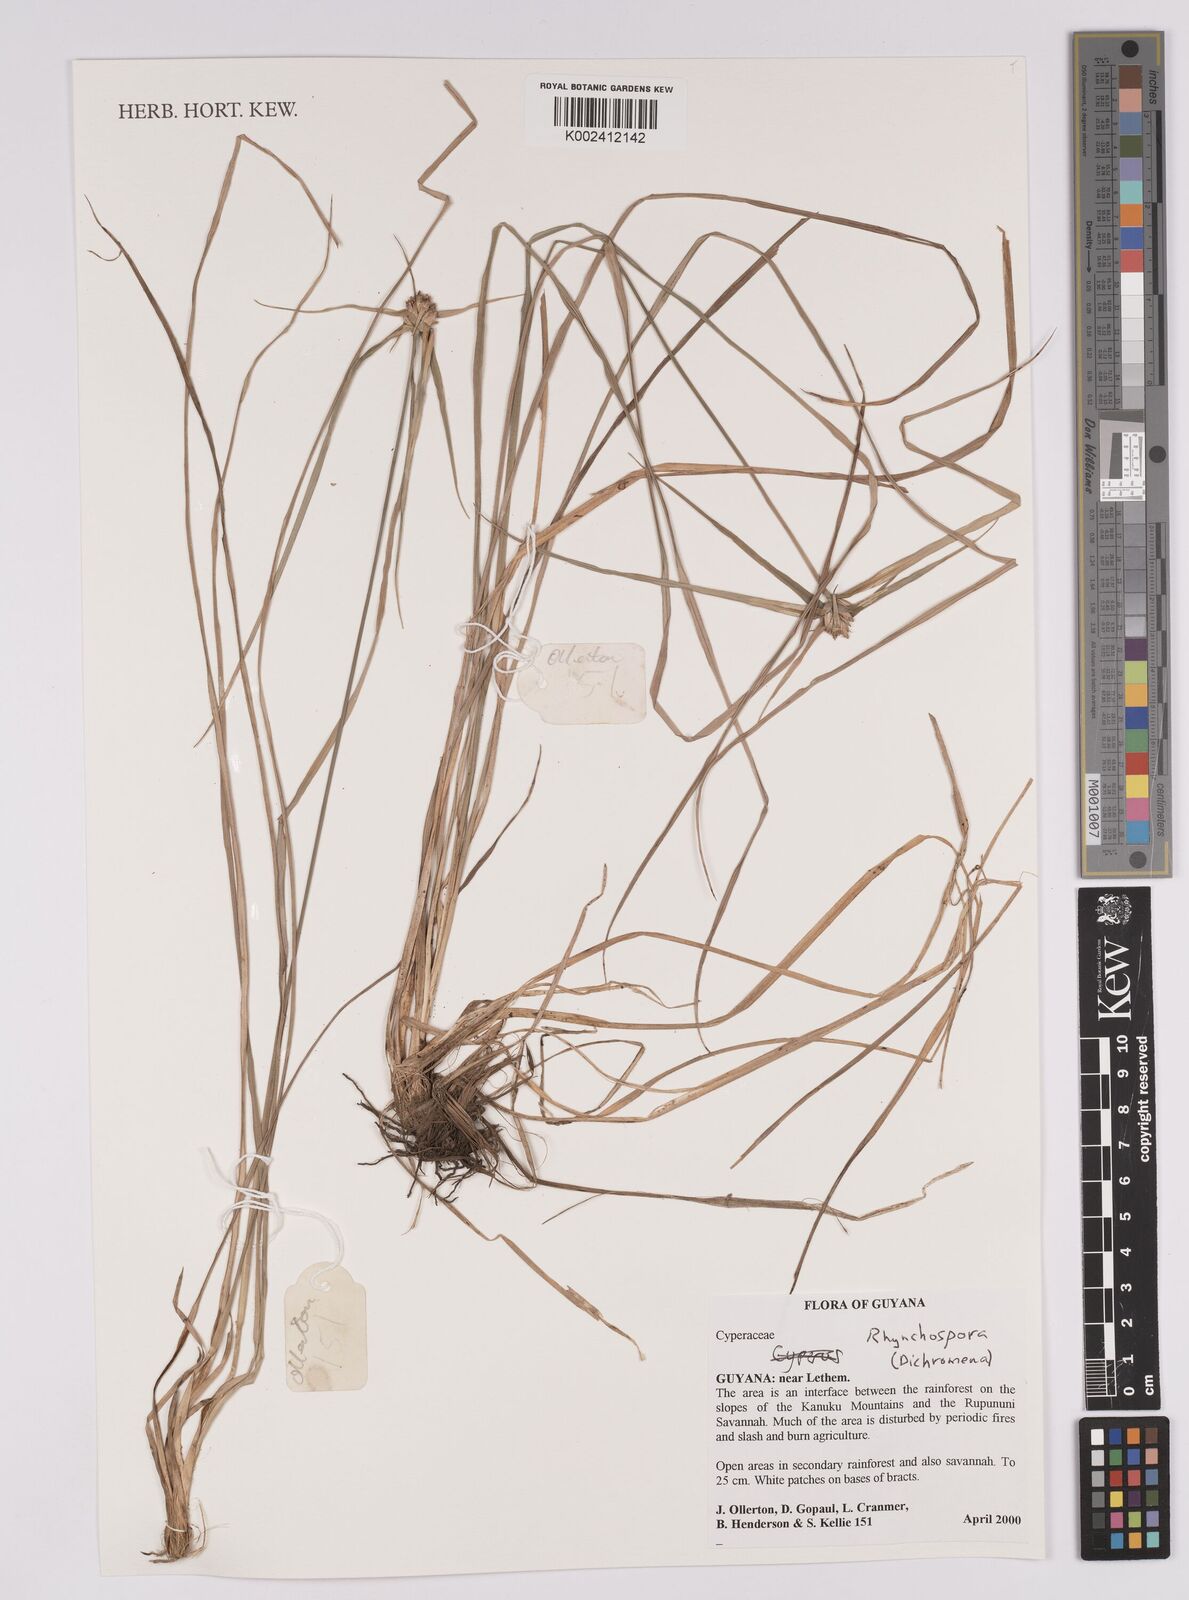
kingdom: Plantae
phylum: Tracheophyta
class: Liliopsida
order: Poales
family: Cyperaceae
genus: Rhynchospora
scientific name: Rhynchospora
